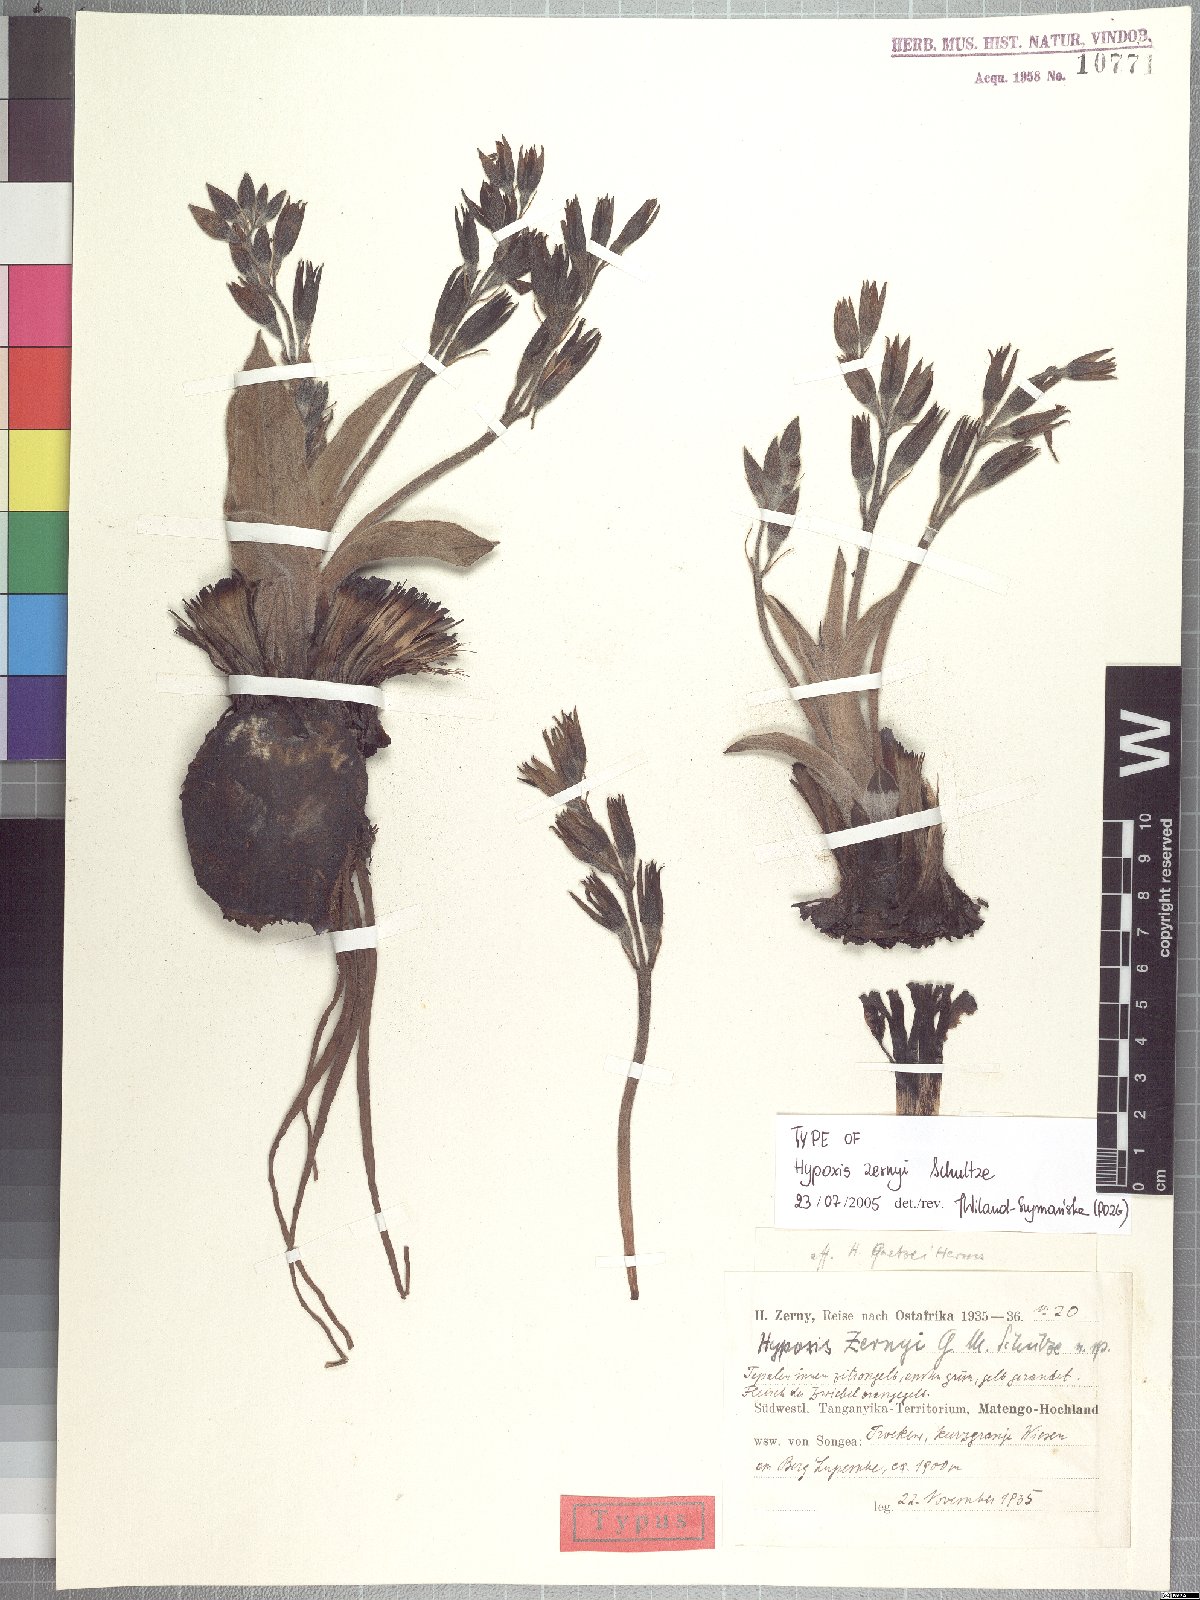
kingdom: Plantae
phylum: Tracheophyta
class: Liliopsida
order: Asparagales
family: Hypoxidaceae
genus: Hypoxis
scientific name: Hypoxis fischeri
